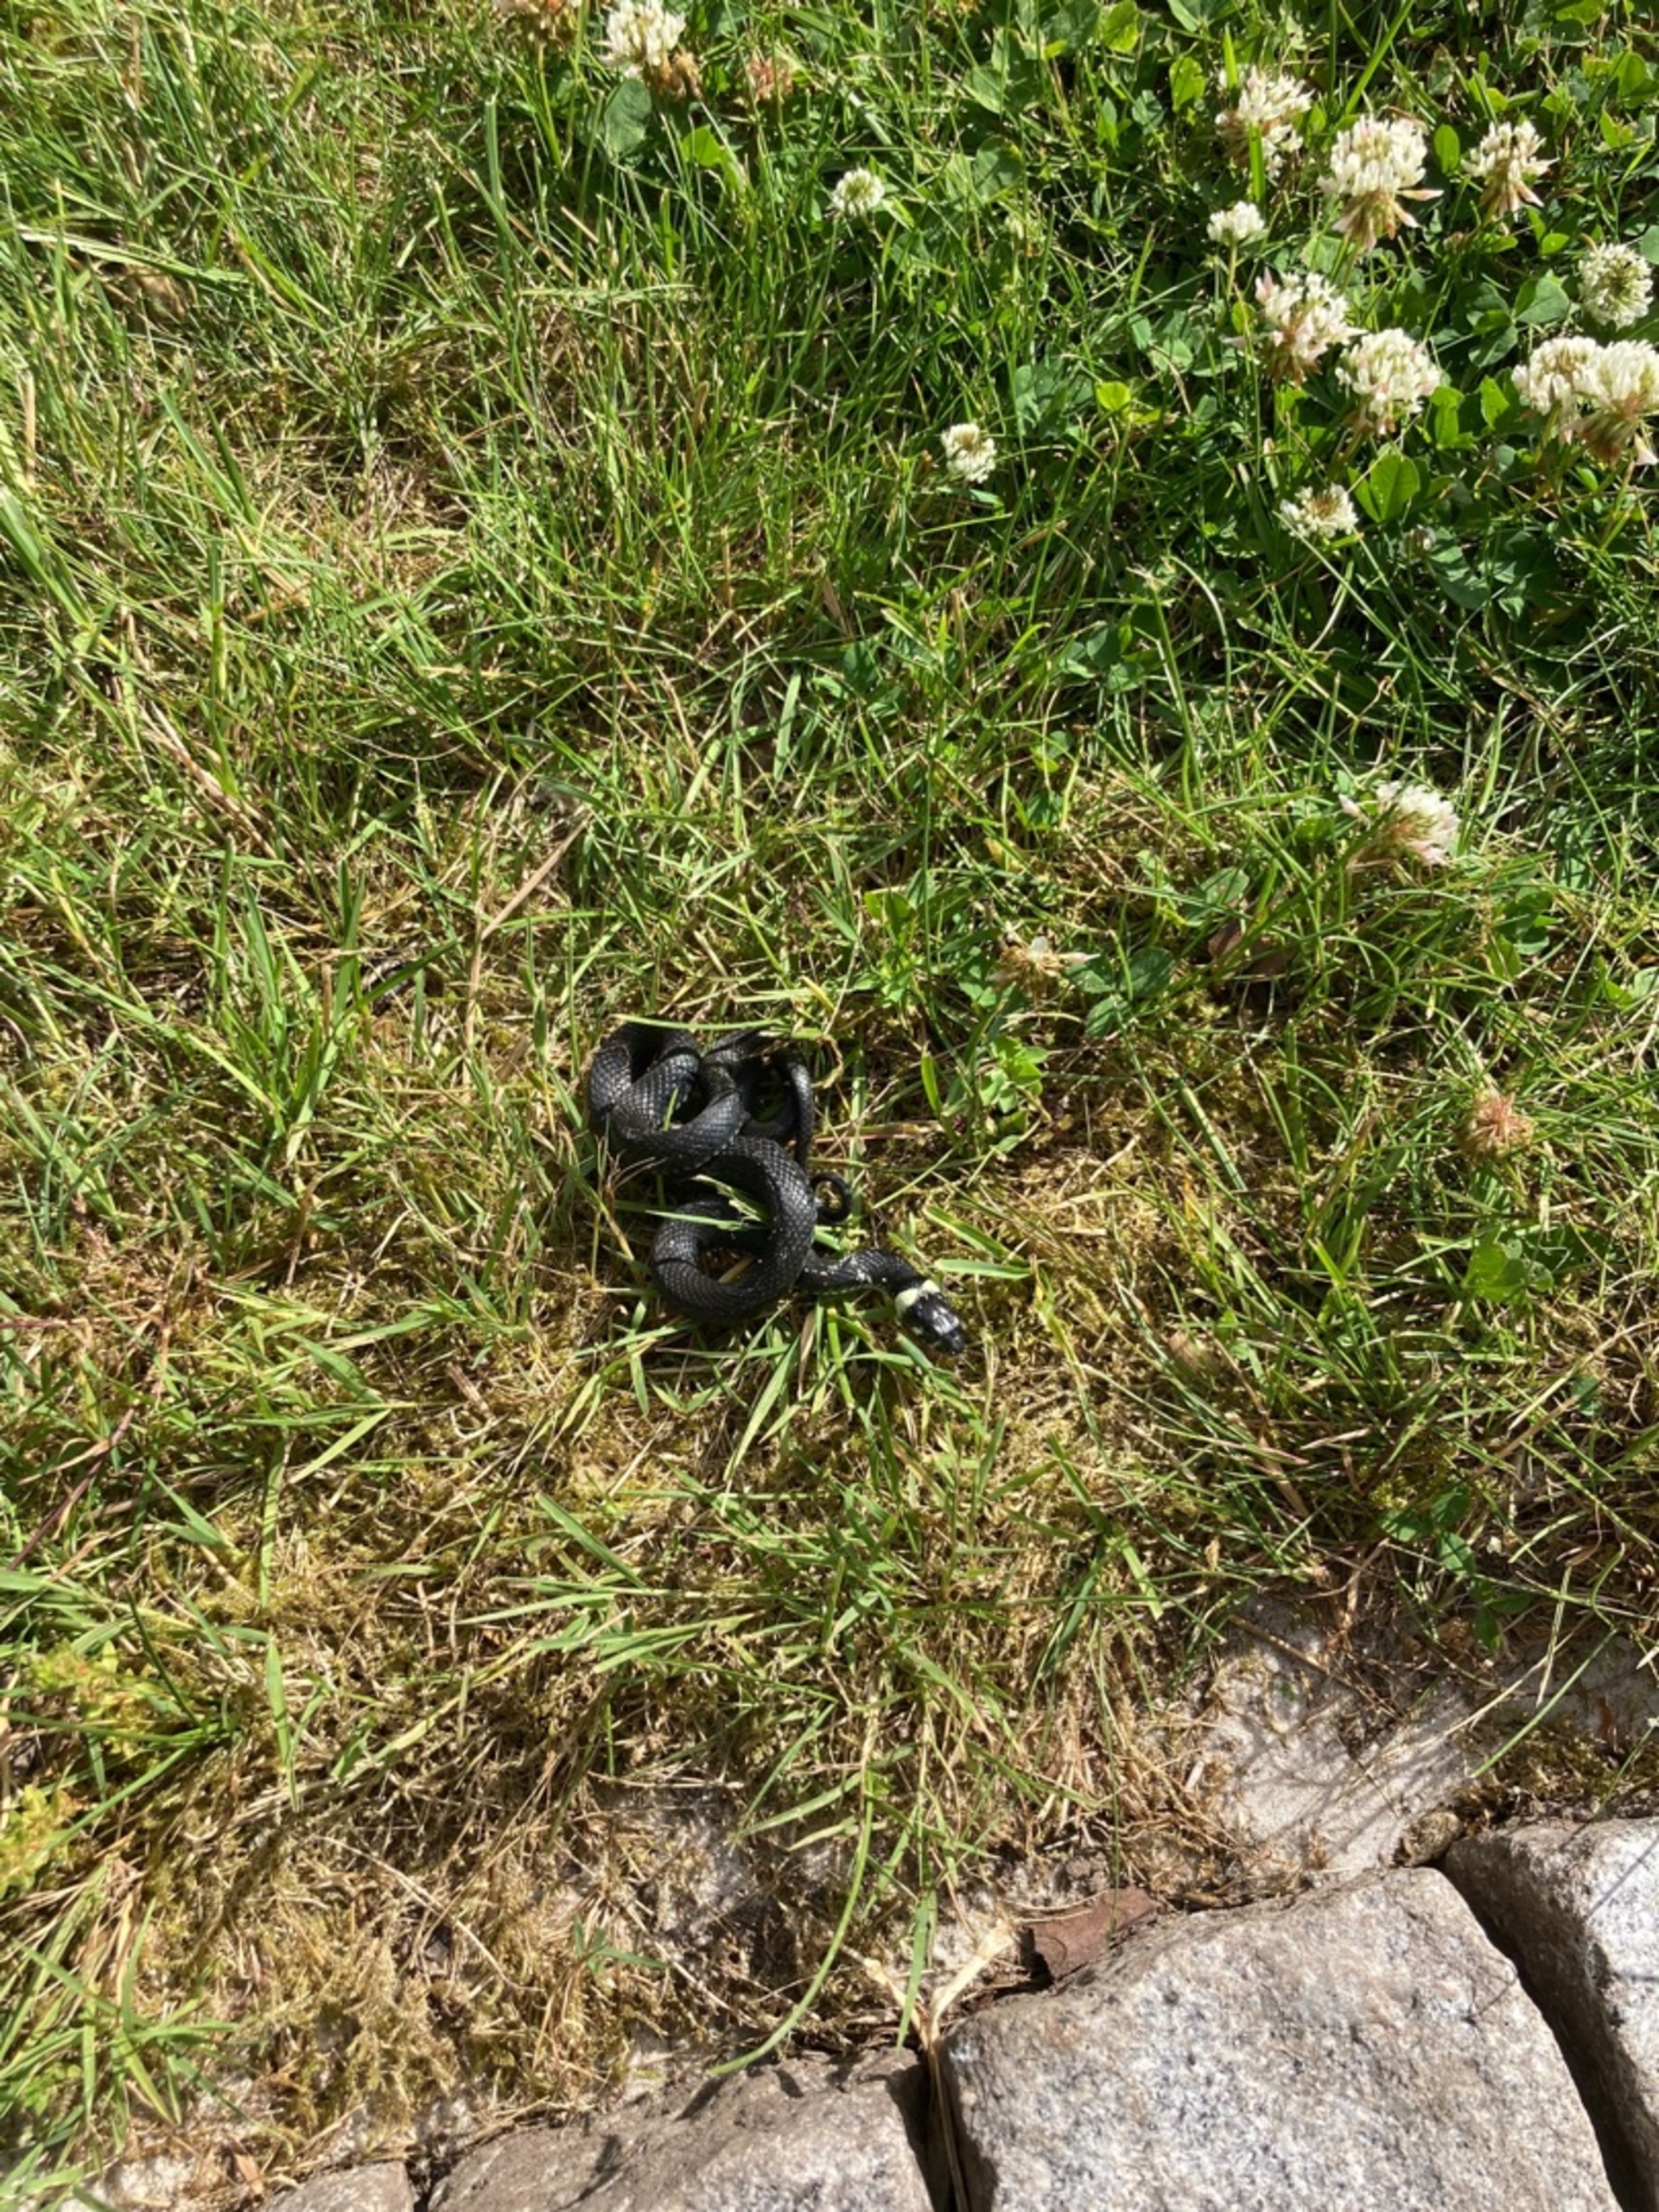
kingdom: Animalia
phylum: Chordata
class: Squamata
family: Colubridae
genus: Natrix
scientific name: Natrix natrix
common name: Snog
